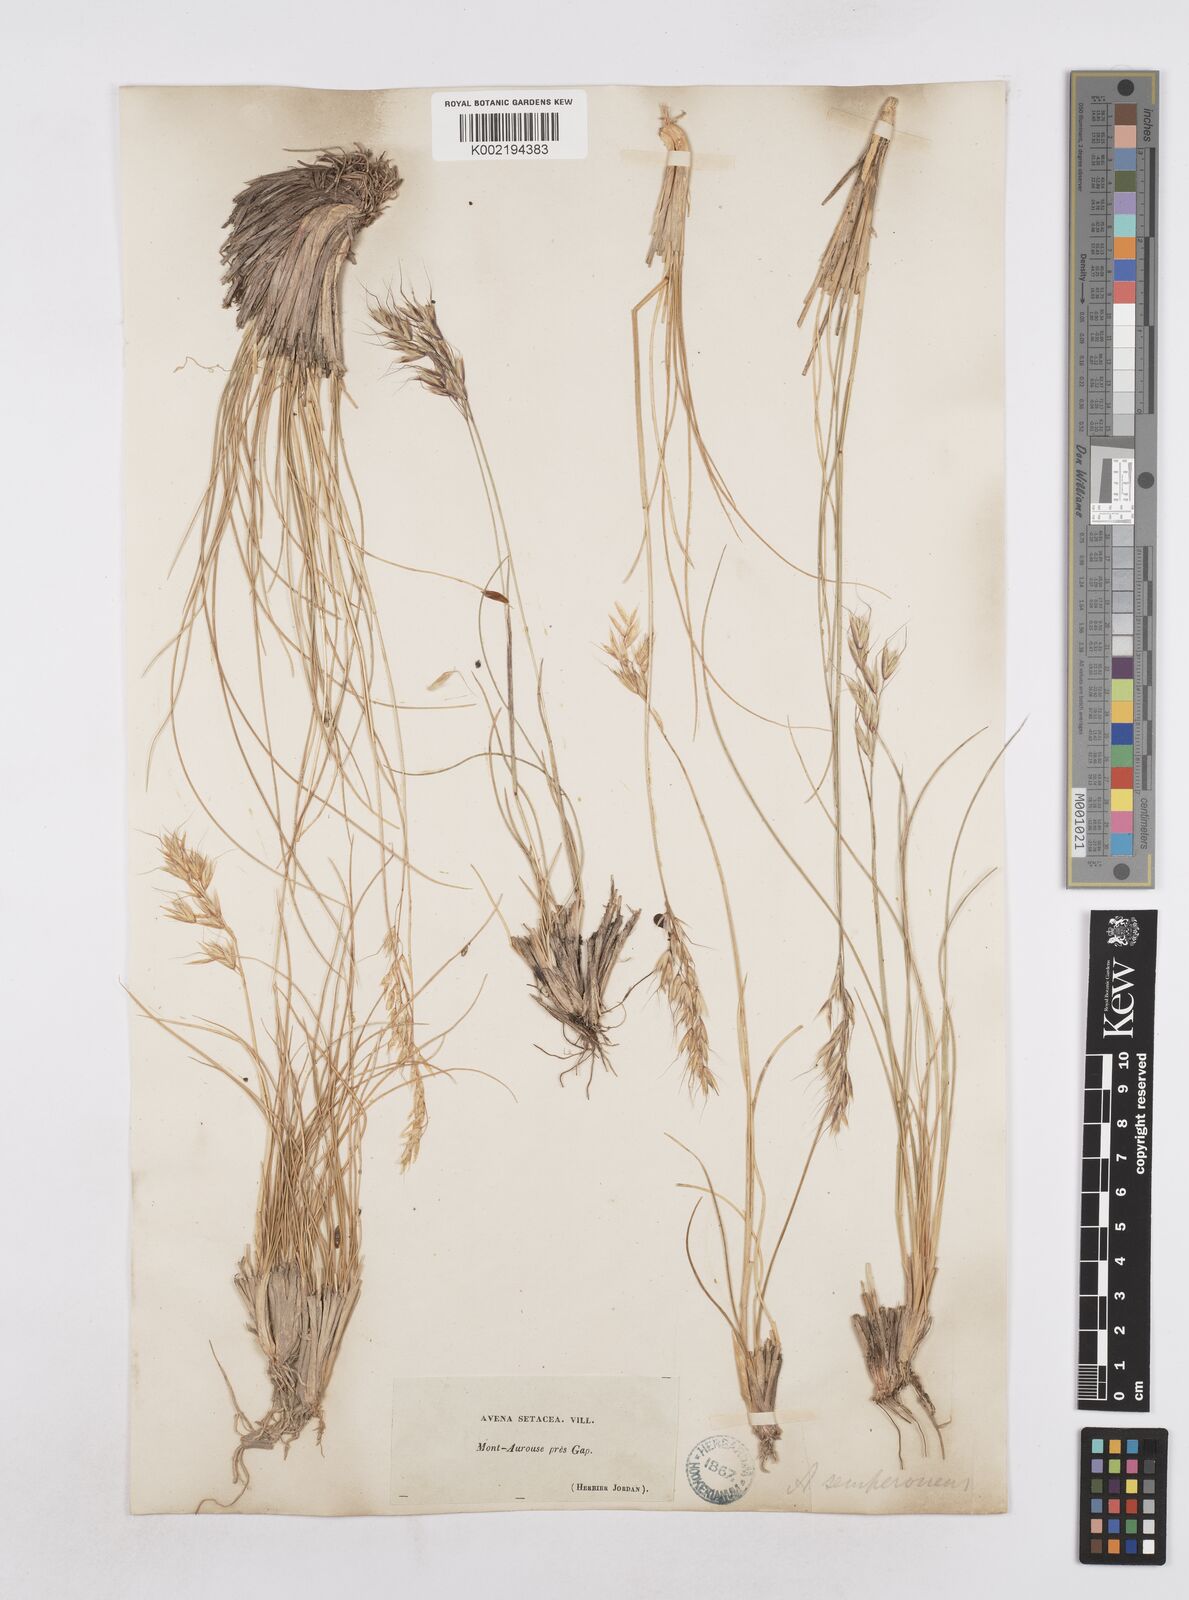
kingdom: Plantae
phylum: Tracheophyta
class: Liliopsida
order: Poales
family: Poaceae
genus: Helictotrichon
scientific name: Helictotrichon setaceum
